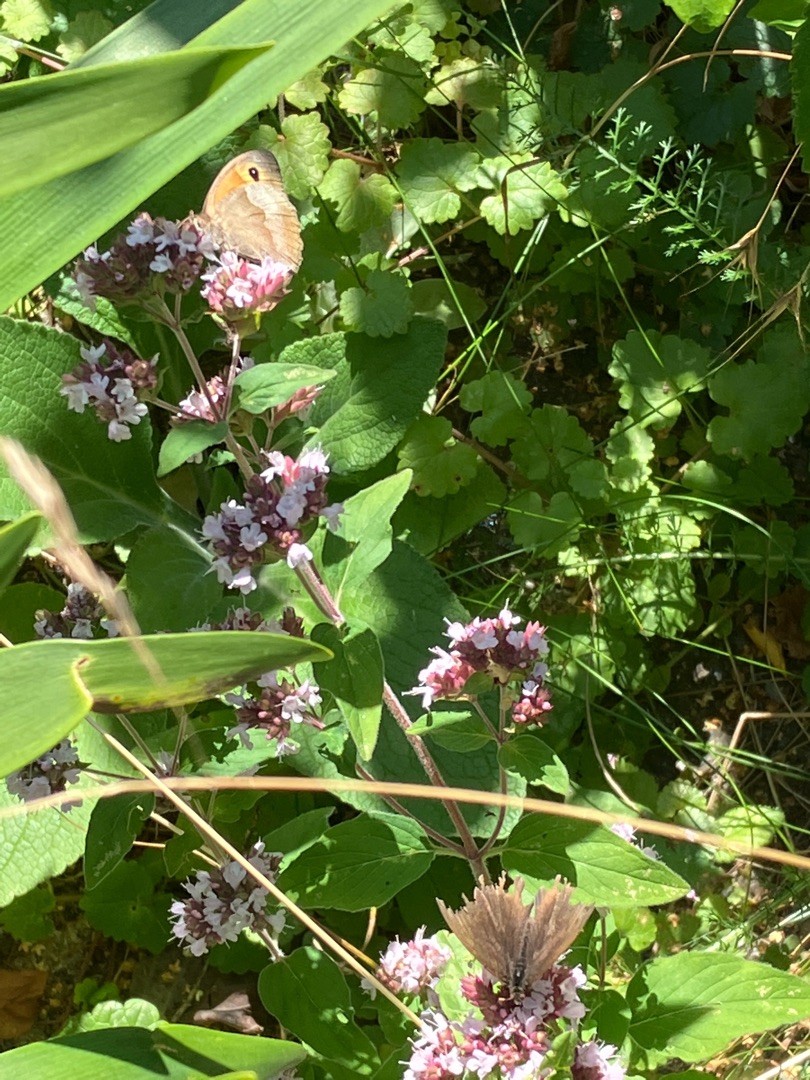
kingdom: Plantae
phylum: Tracheophyta
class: Magnoliopsida
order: Lamiales
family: Lamiaceae
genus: Origanum
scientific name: Origanum vulgare
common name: Merian
